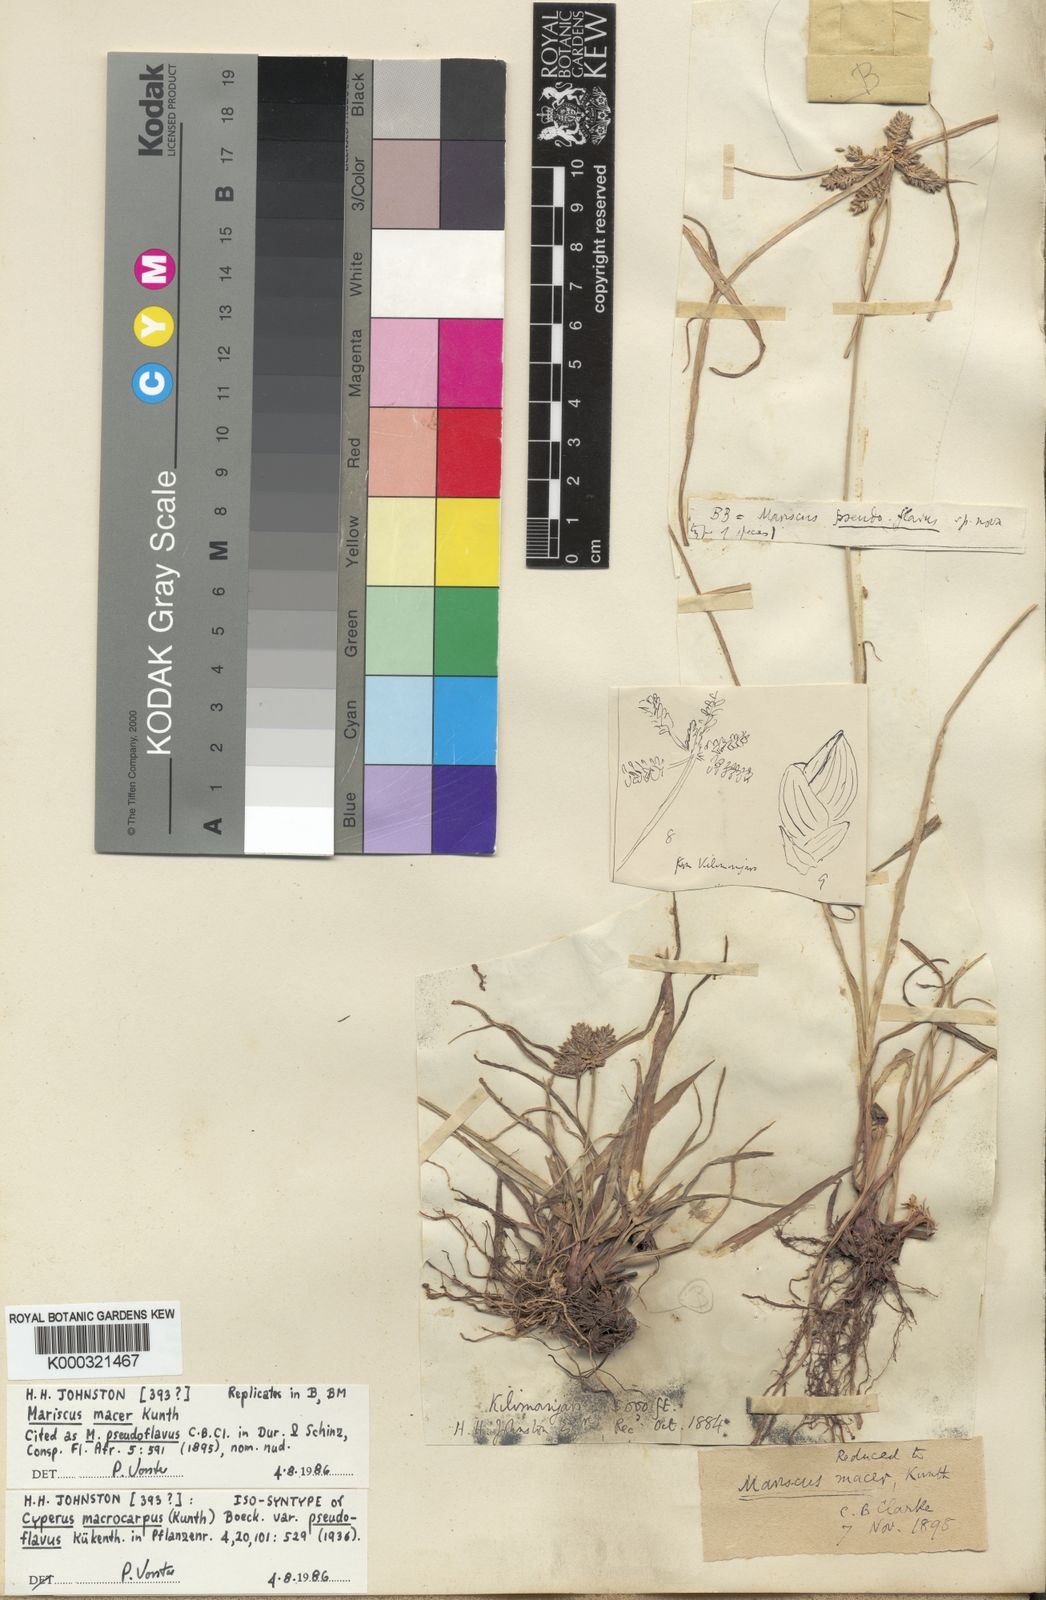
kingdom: Plantae
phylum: Tracheophyta
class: Liliopsida
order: Poales
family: Cyperaceae
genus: Cyperus
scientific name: Cyperus
